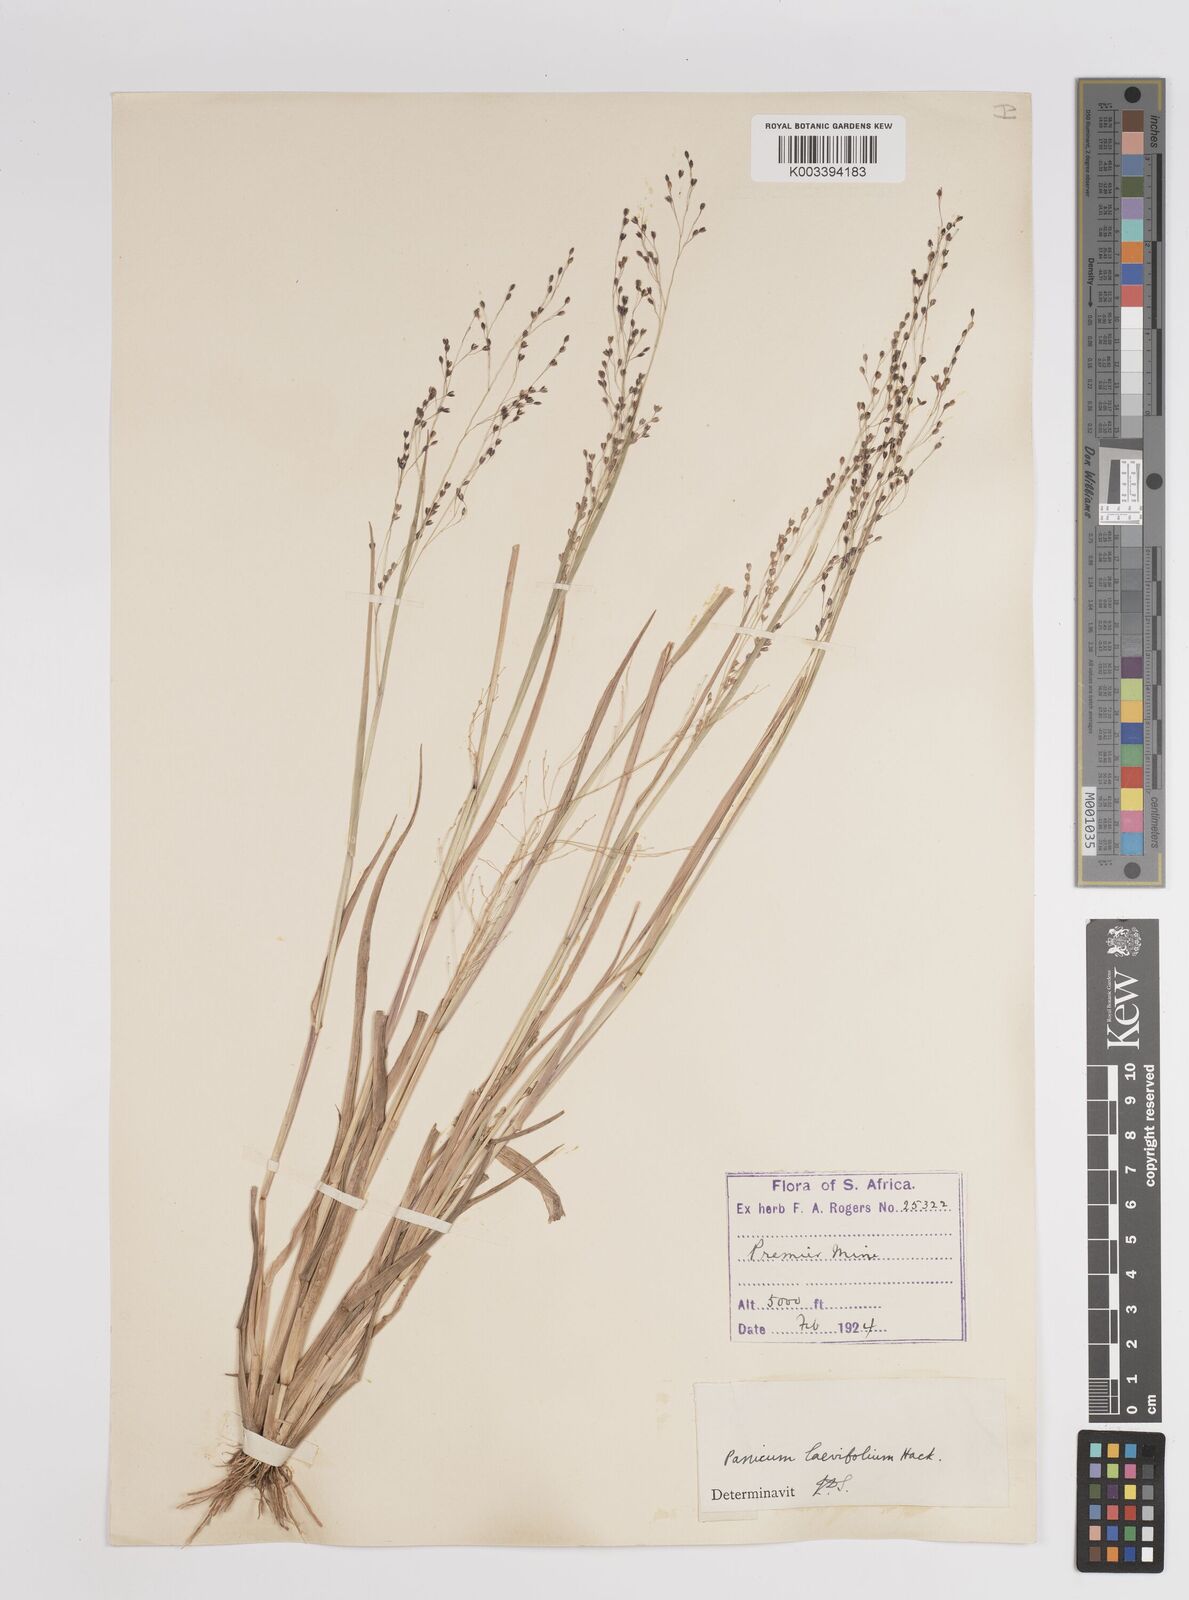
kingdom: Plantae
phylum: Tracheophyta
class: Liliopsida
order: Poales
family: Poaceae
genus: Panicum
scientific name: Panicum
